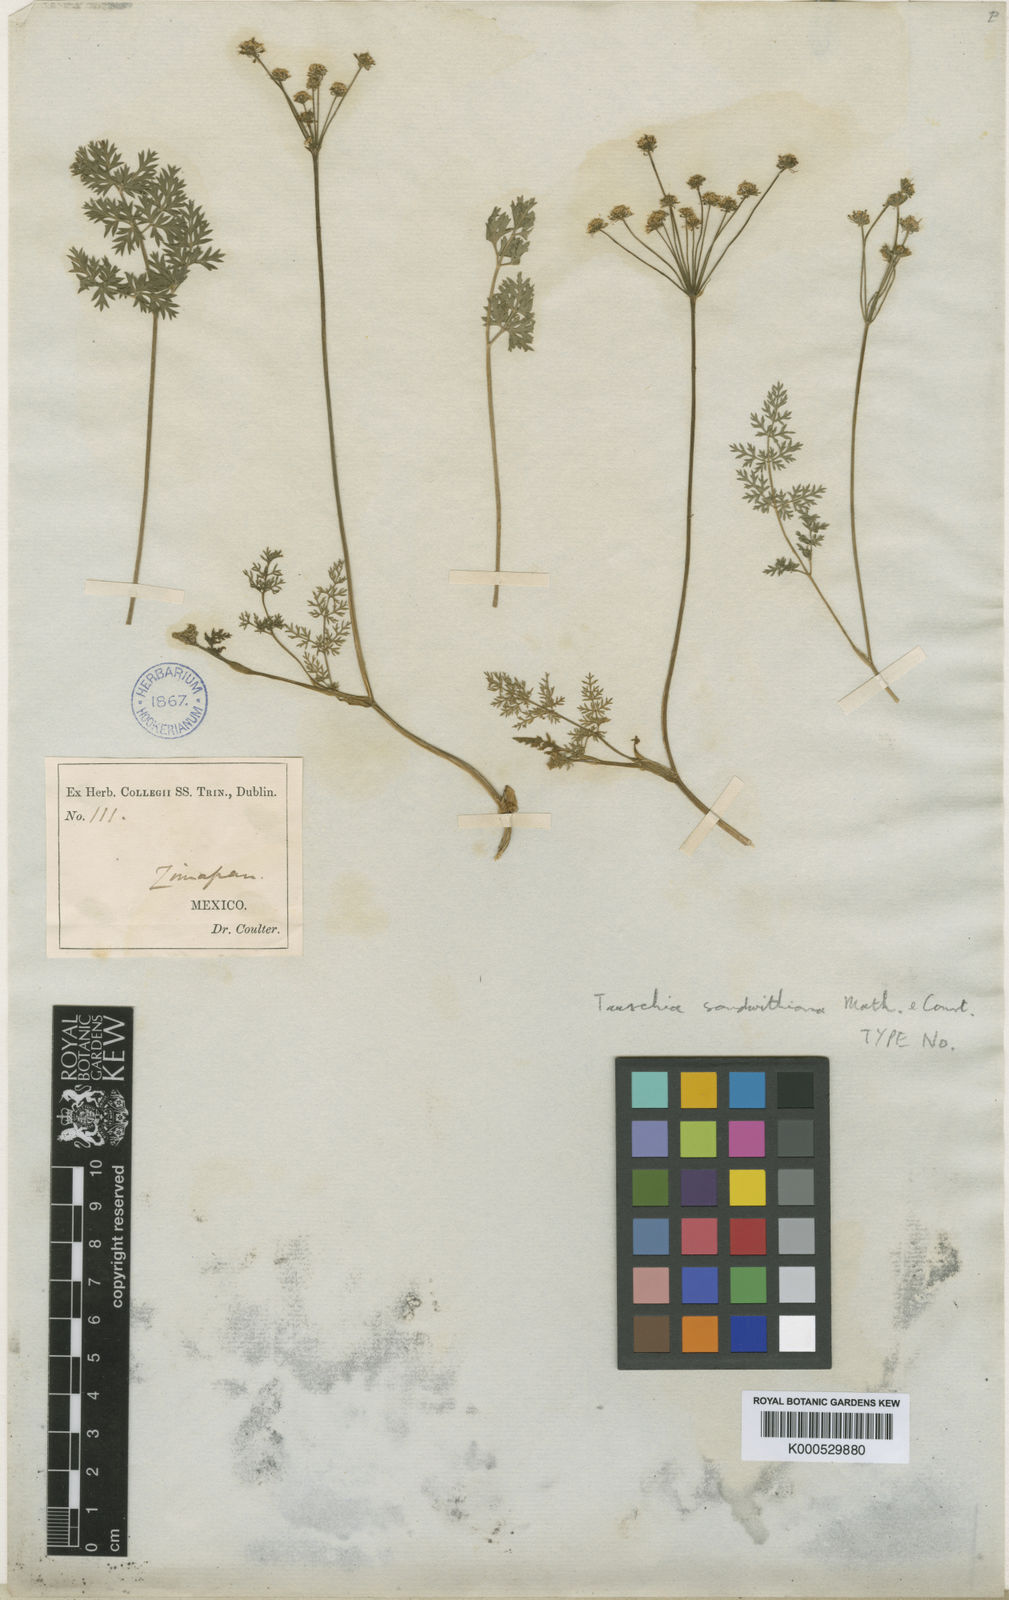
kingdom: Plantae
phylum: Tracheophyta
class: Magnoliopsida
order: Apiales
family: Apiaceae
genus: Tauschia
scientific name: Tauschia sandwithiana
